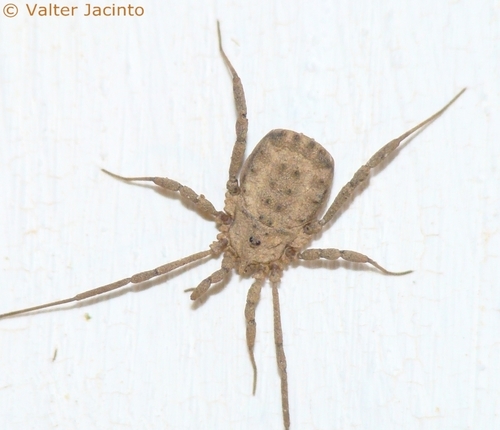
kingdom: Animalia
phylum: Arthropoda
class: Arachnida
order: Opiliones
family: Sclerosomatidae
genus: Homalenotus
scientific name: Homalenotus buchneri
